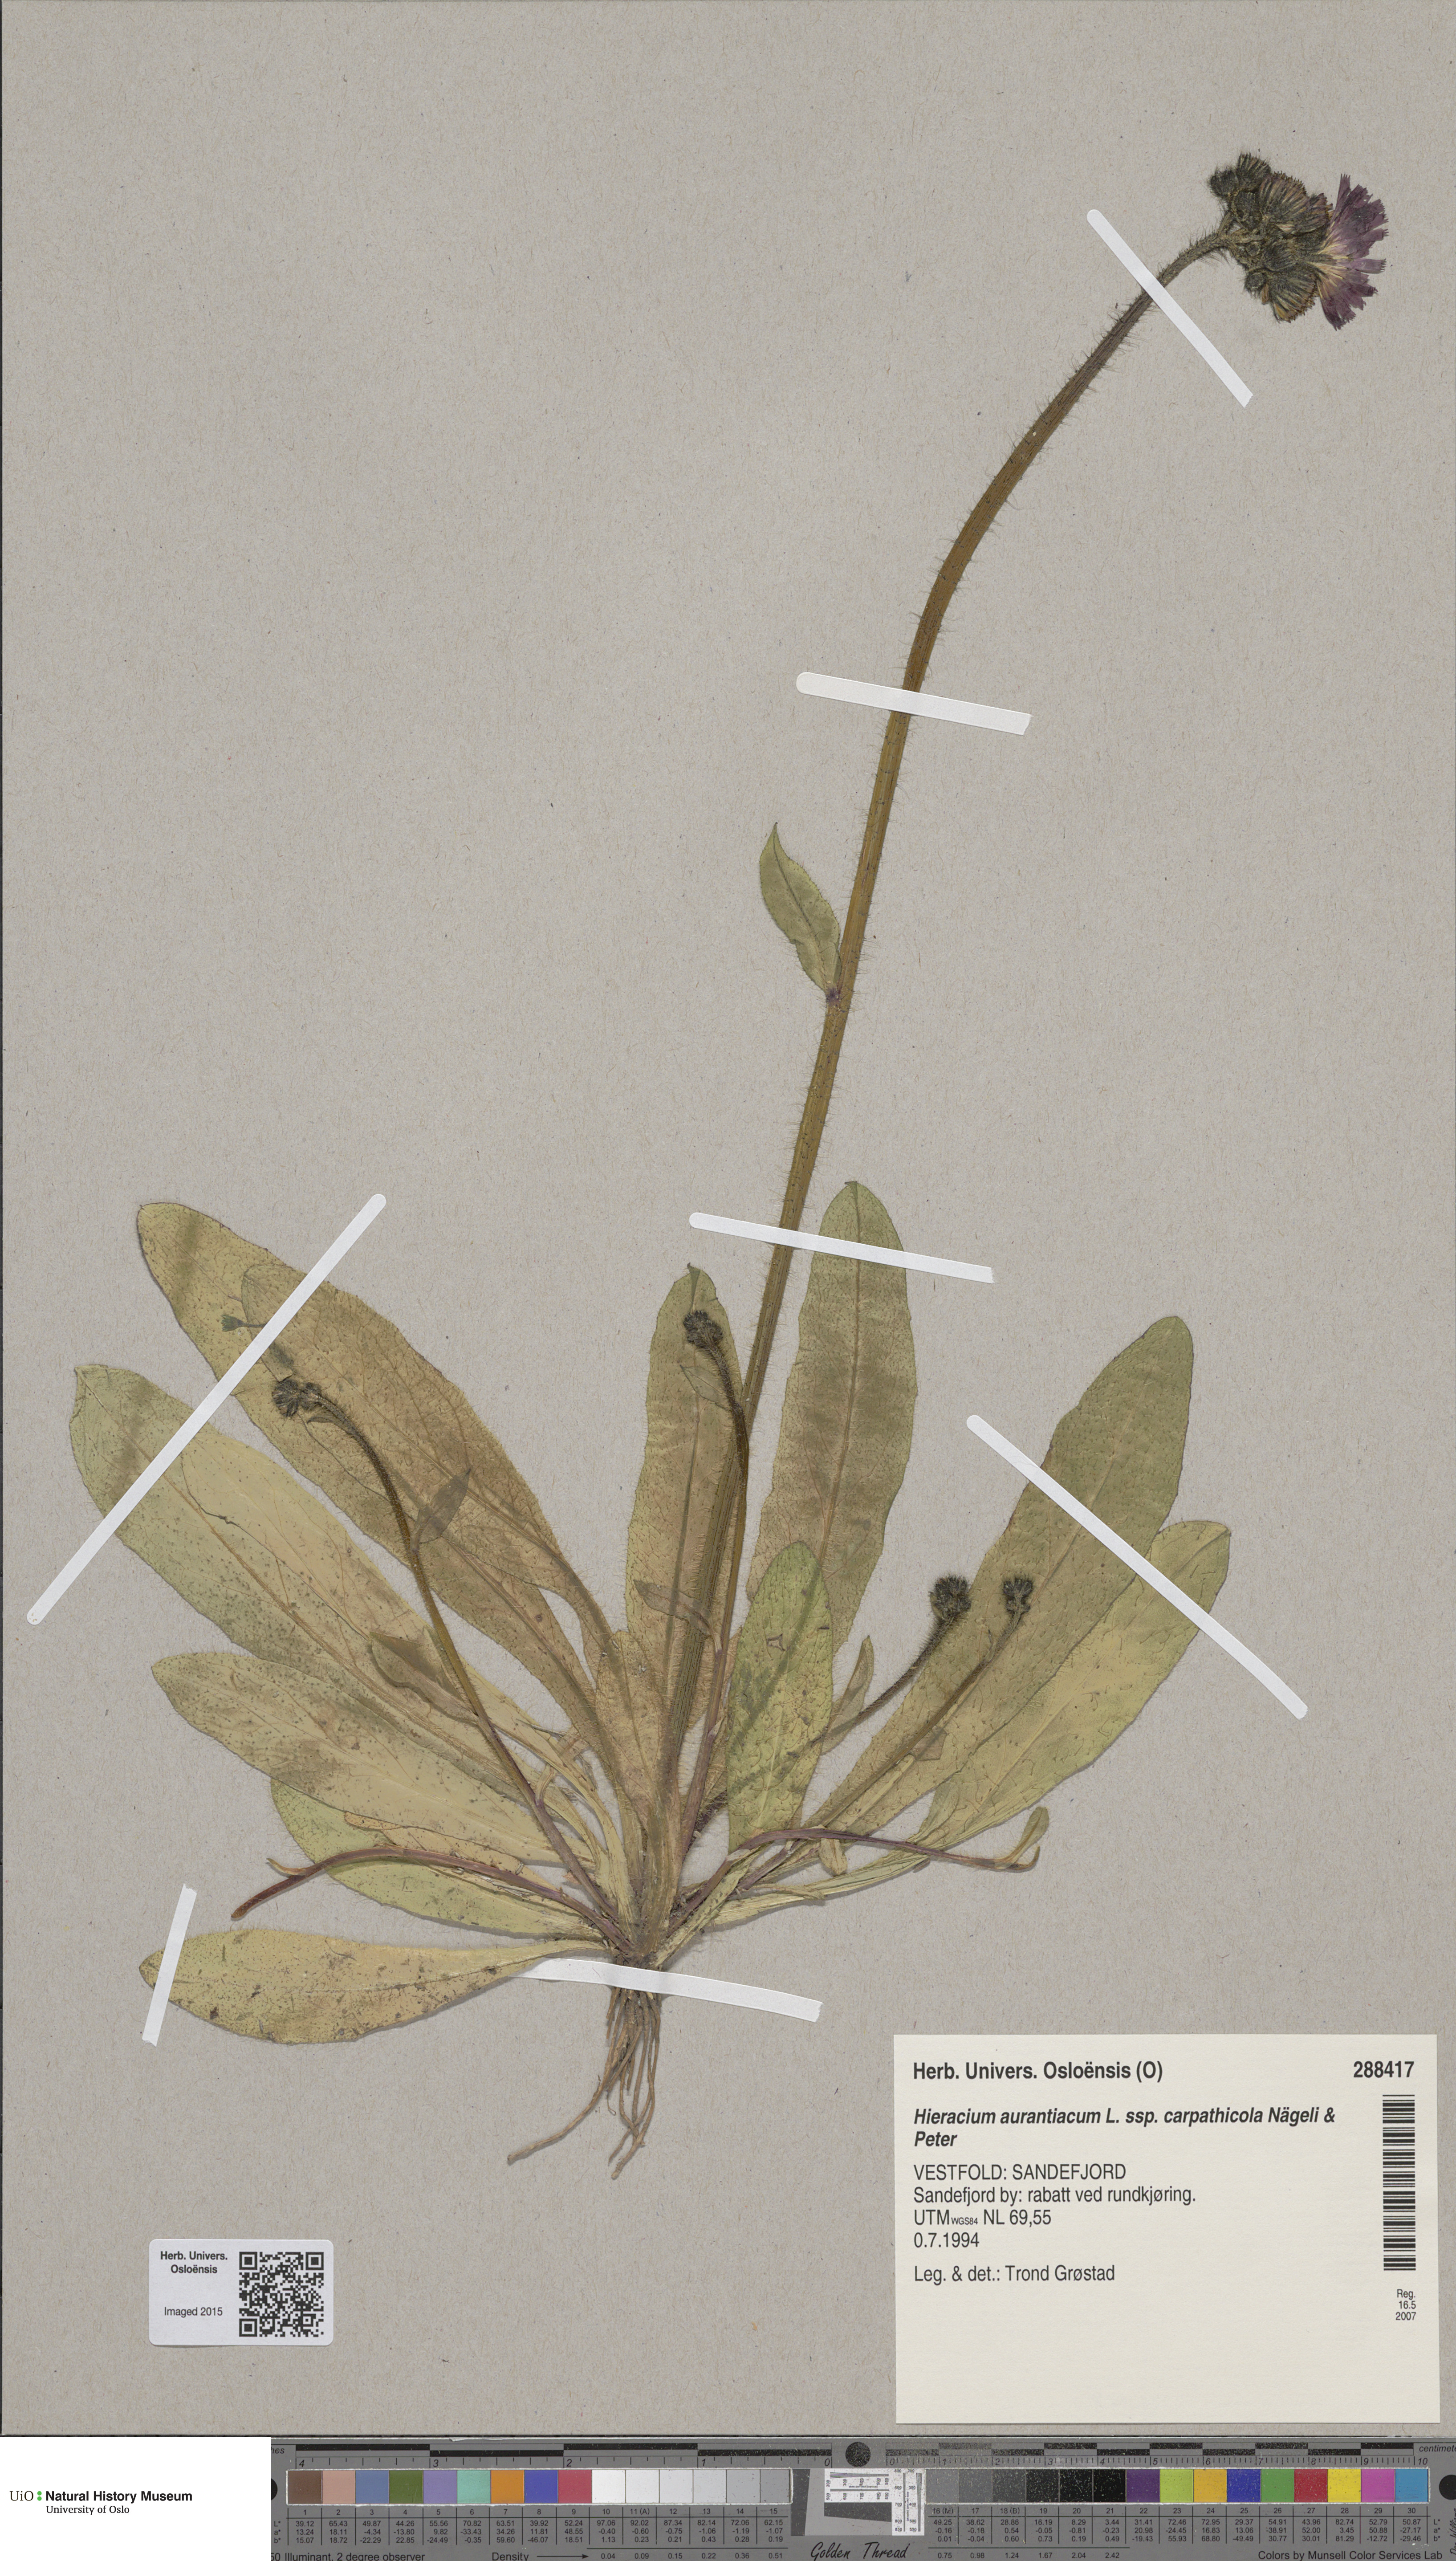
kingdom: Plantae
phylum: Tracheophyta
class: Magnoliopsida
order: Asterales
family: Asteraceae
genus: Pilosella
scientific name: Pilosella aurantiaca
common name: Fox-and-cubs
